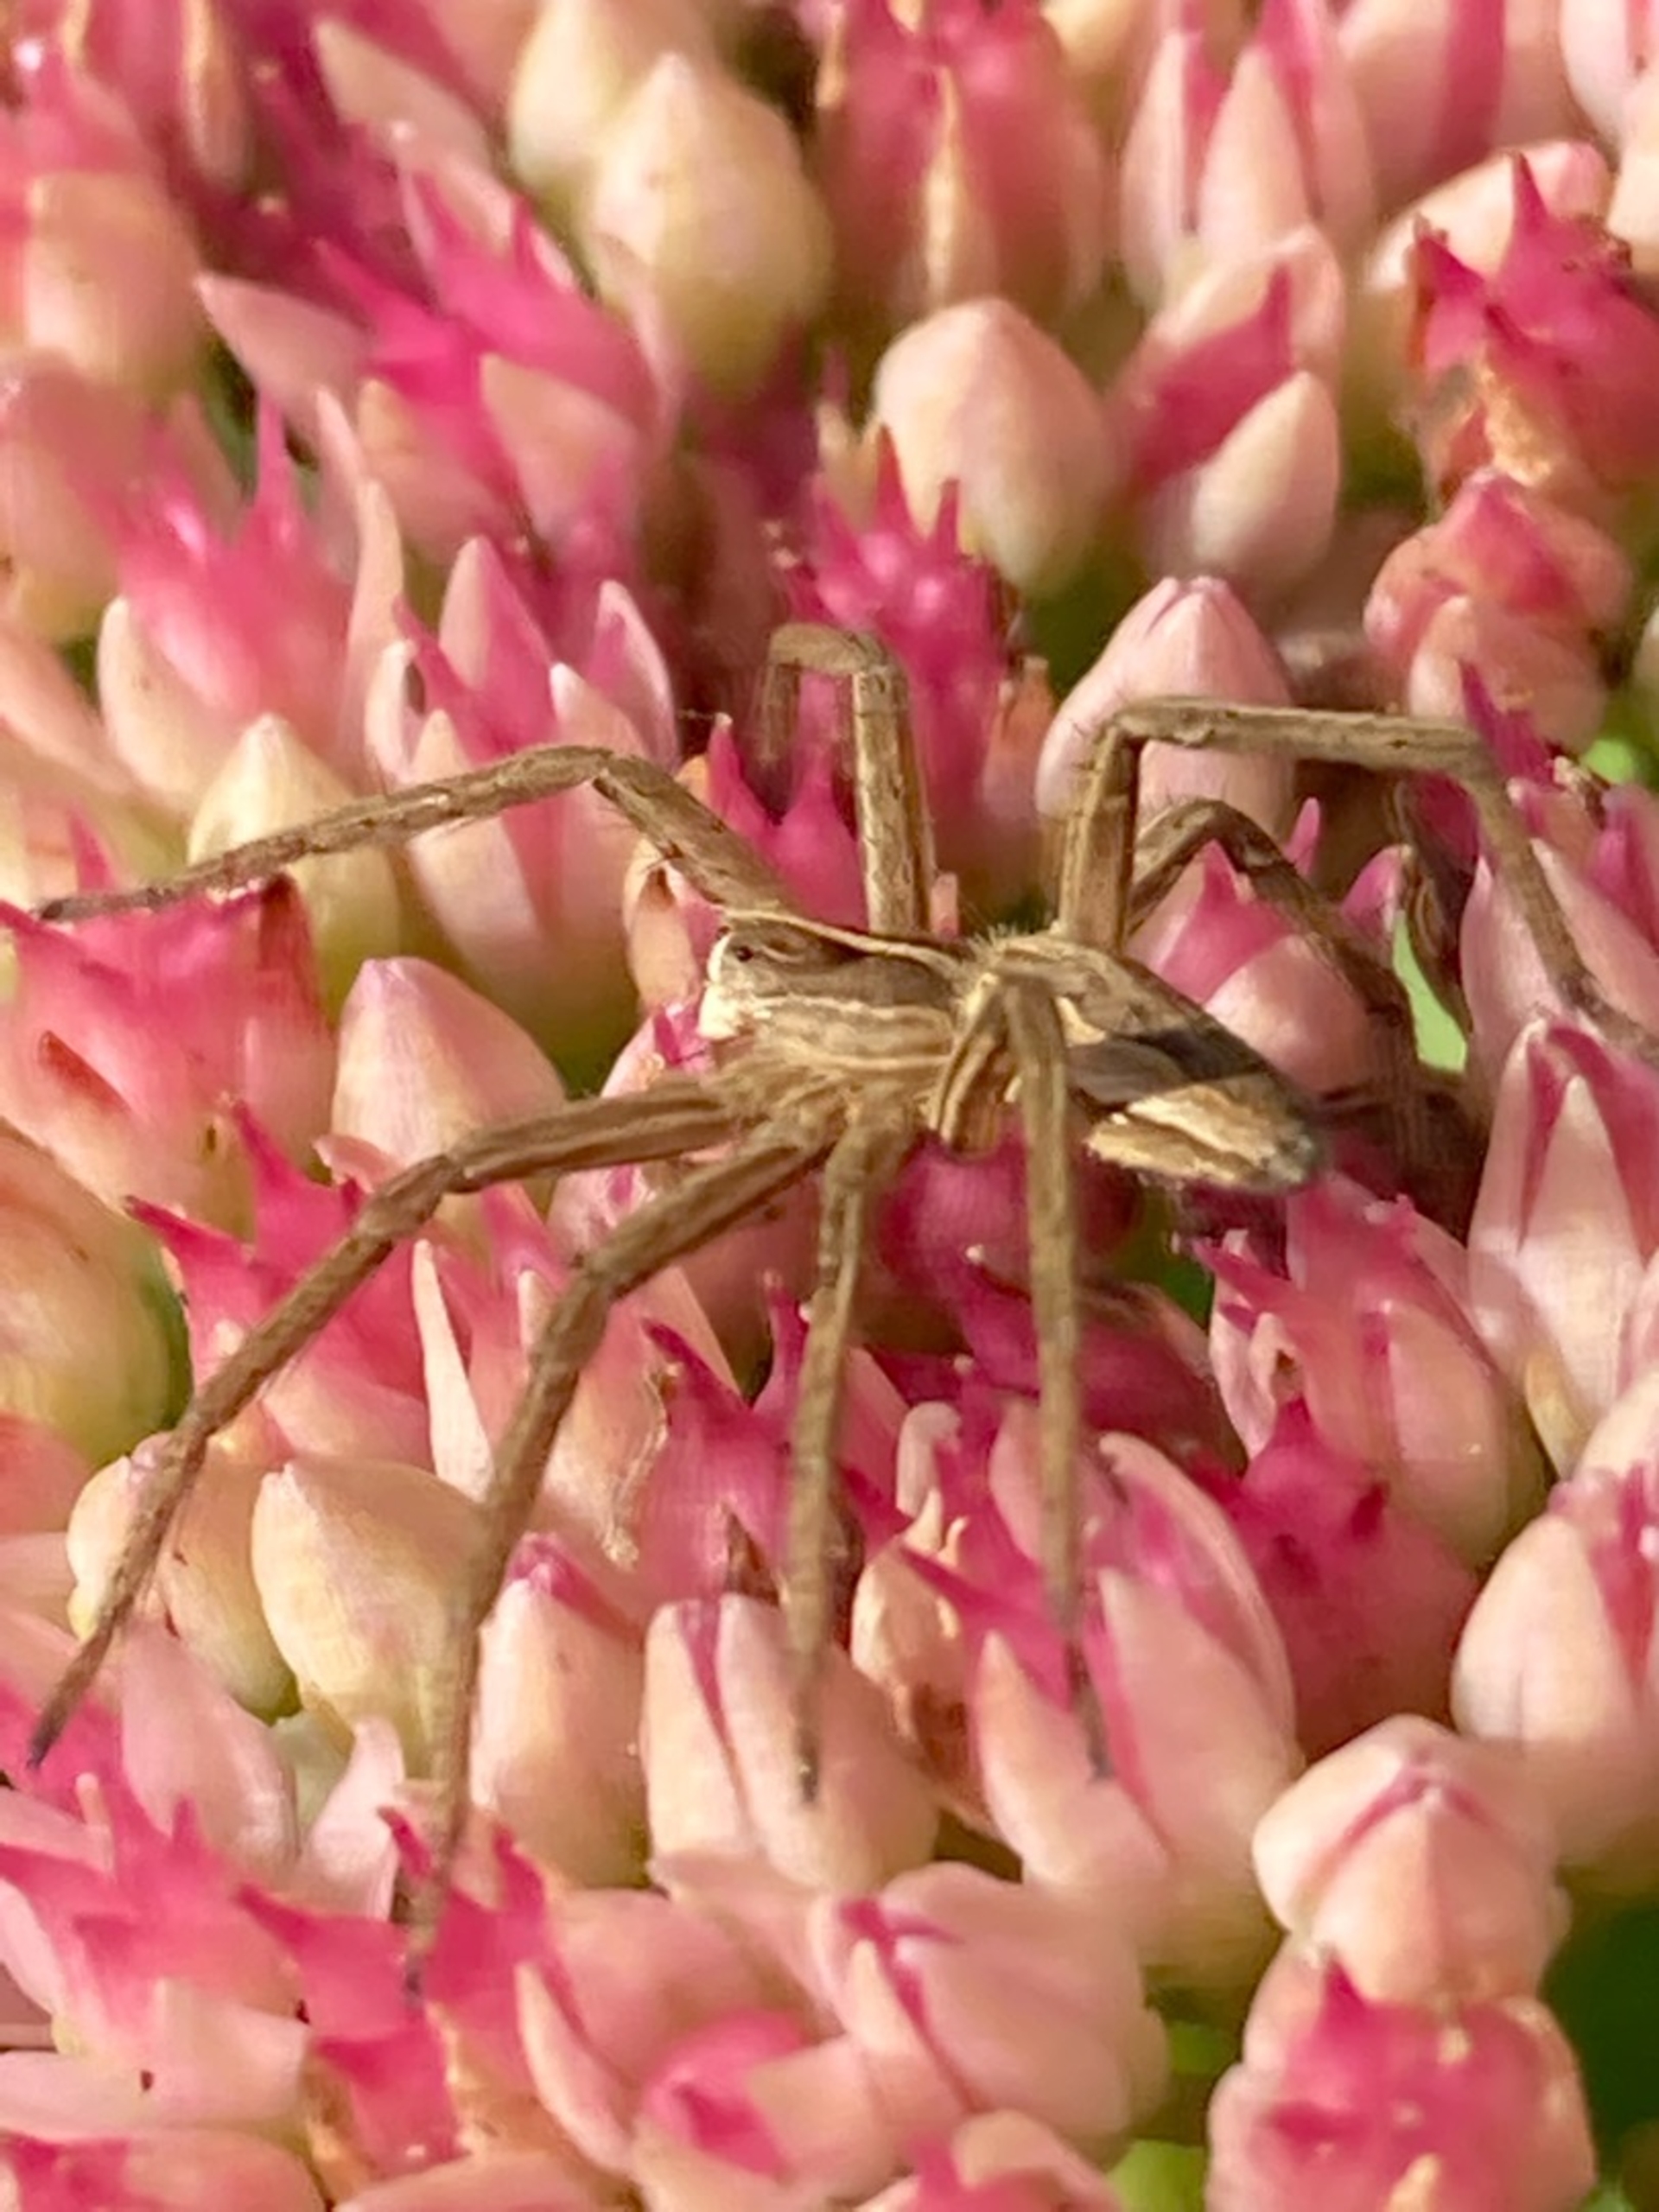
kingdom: Animalia
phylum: Arthropoda
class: Arachnida
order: Araneae
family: Pisauridae
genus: Pisaura
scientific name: Pisaura mirabilis
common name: Almindelig rovedderkop
